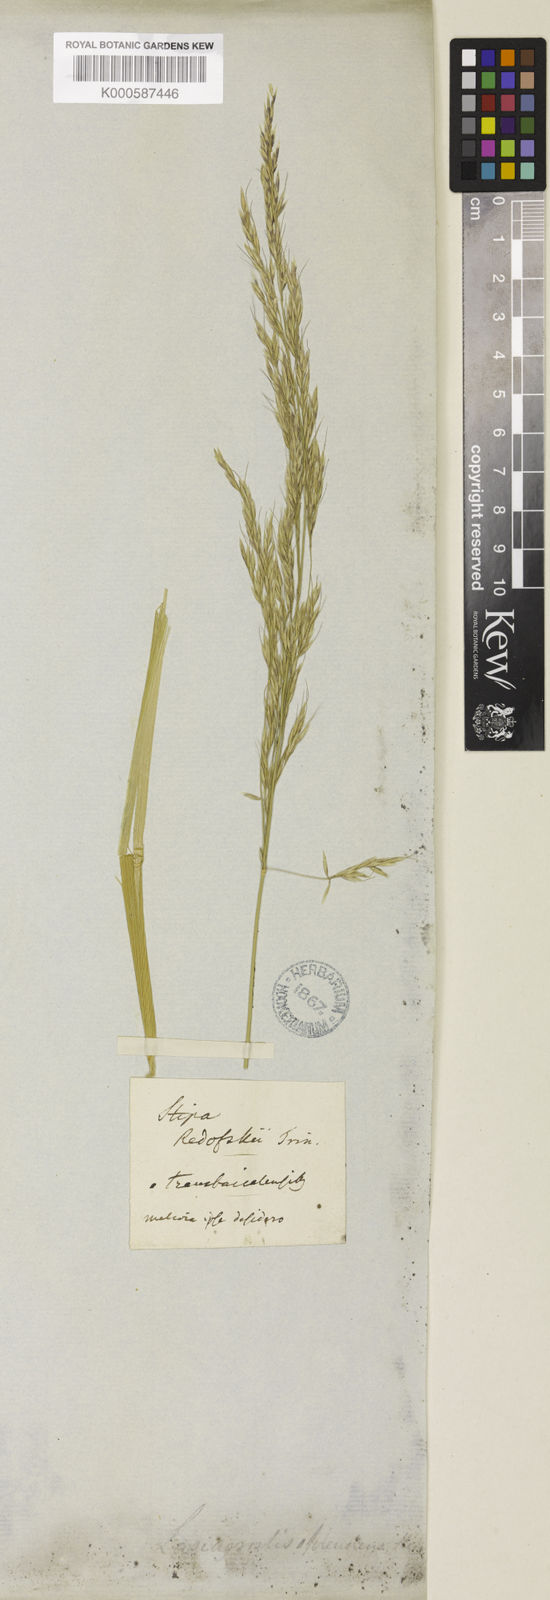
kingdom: Plantae
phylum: Tracheophyta
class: Liliopsida
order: Poales
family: Poaceae
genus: Neotrinia
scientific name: Neotrinia splendens
